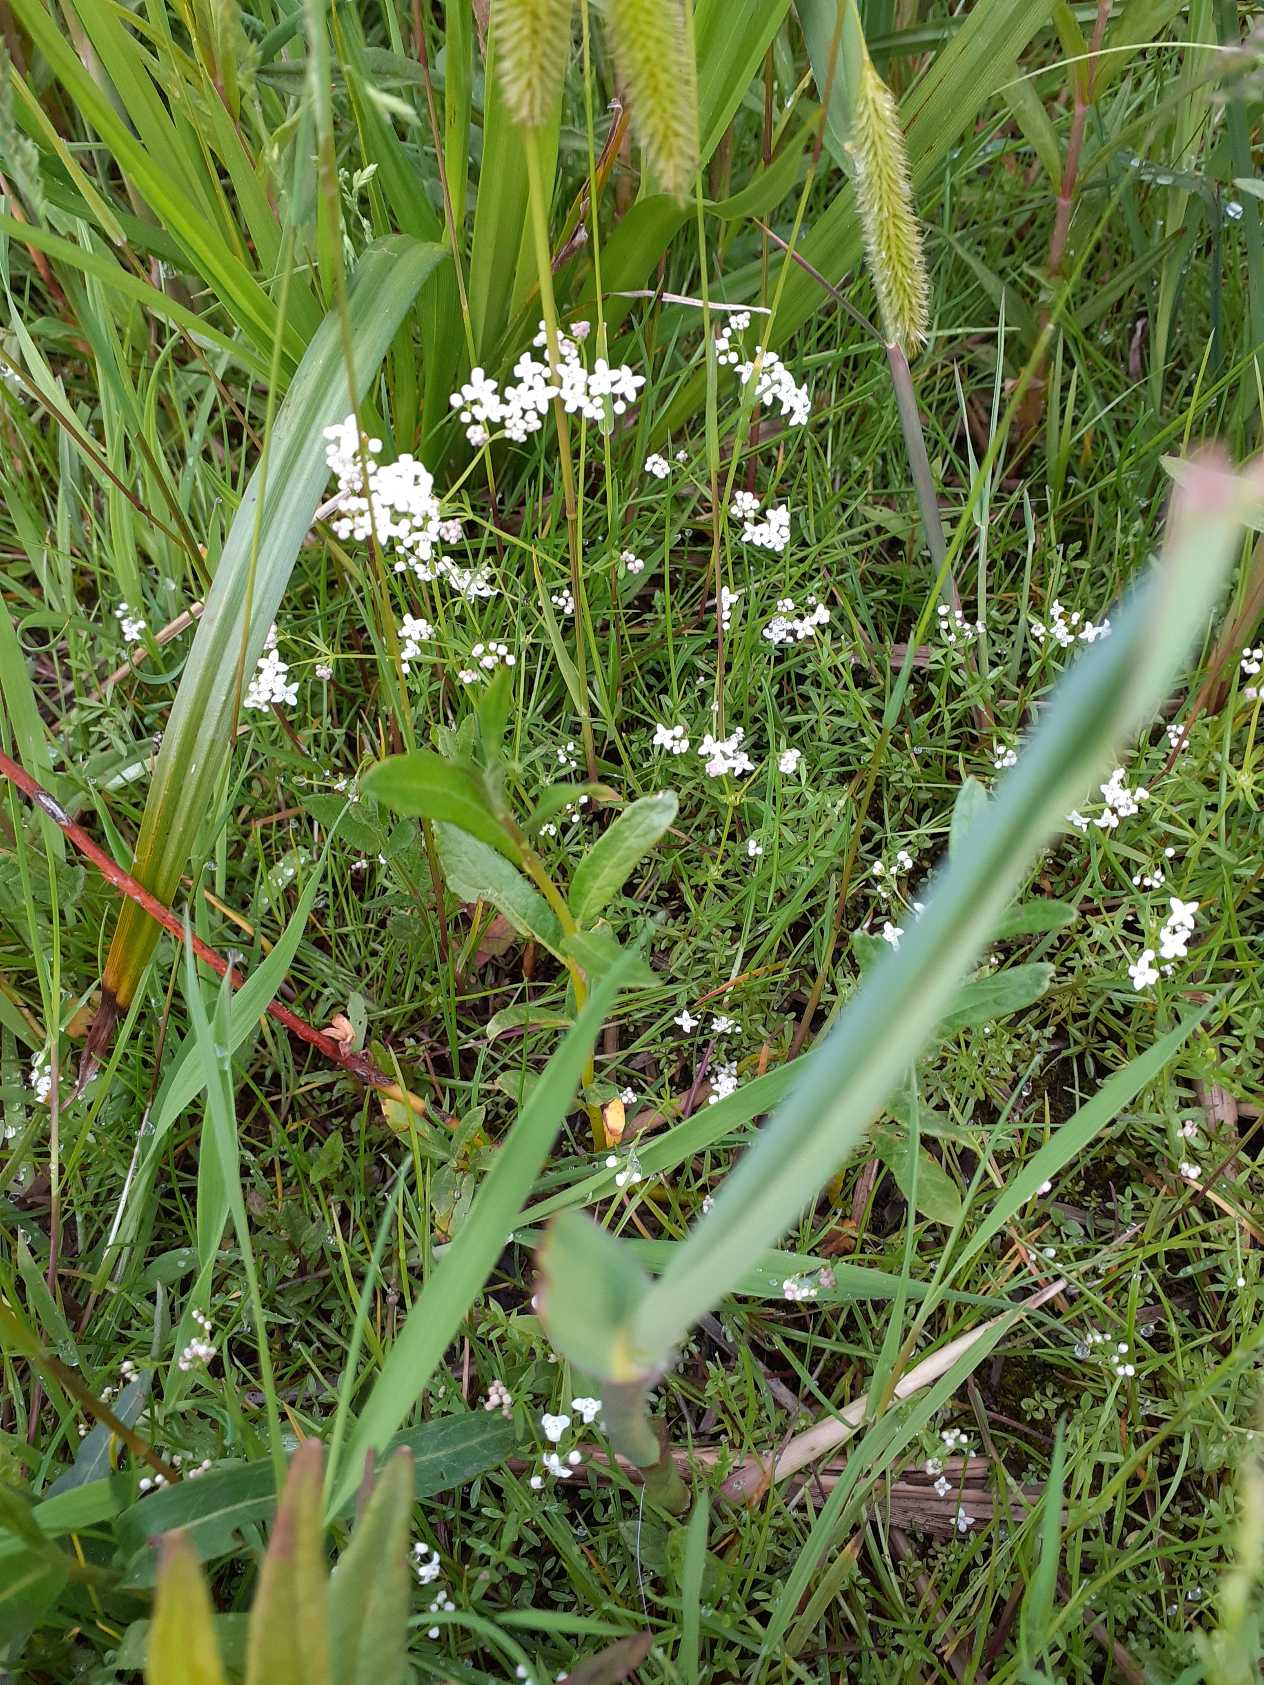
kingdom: Plantae
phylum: Tracheophyta
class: Magnoliopsida
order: Gentianales
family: Rubiaceae
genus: Galium
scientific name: Galium palustre
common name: Kær-snerre
